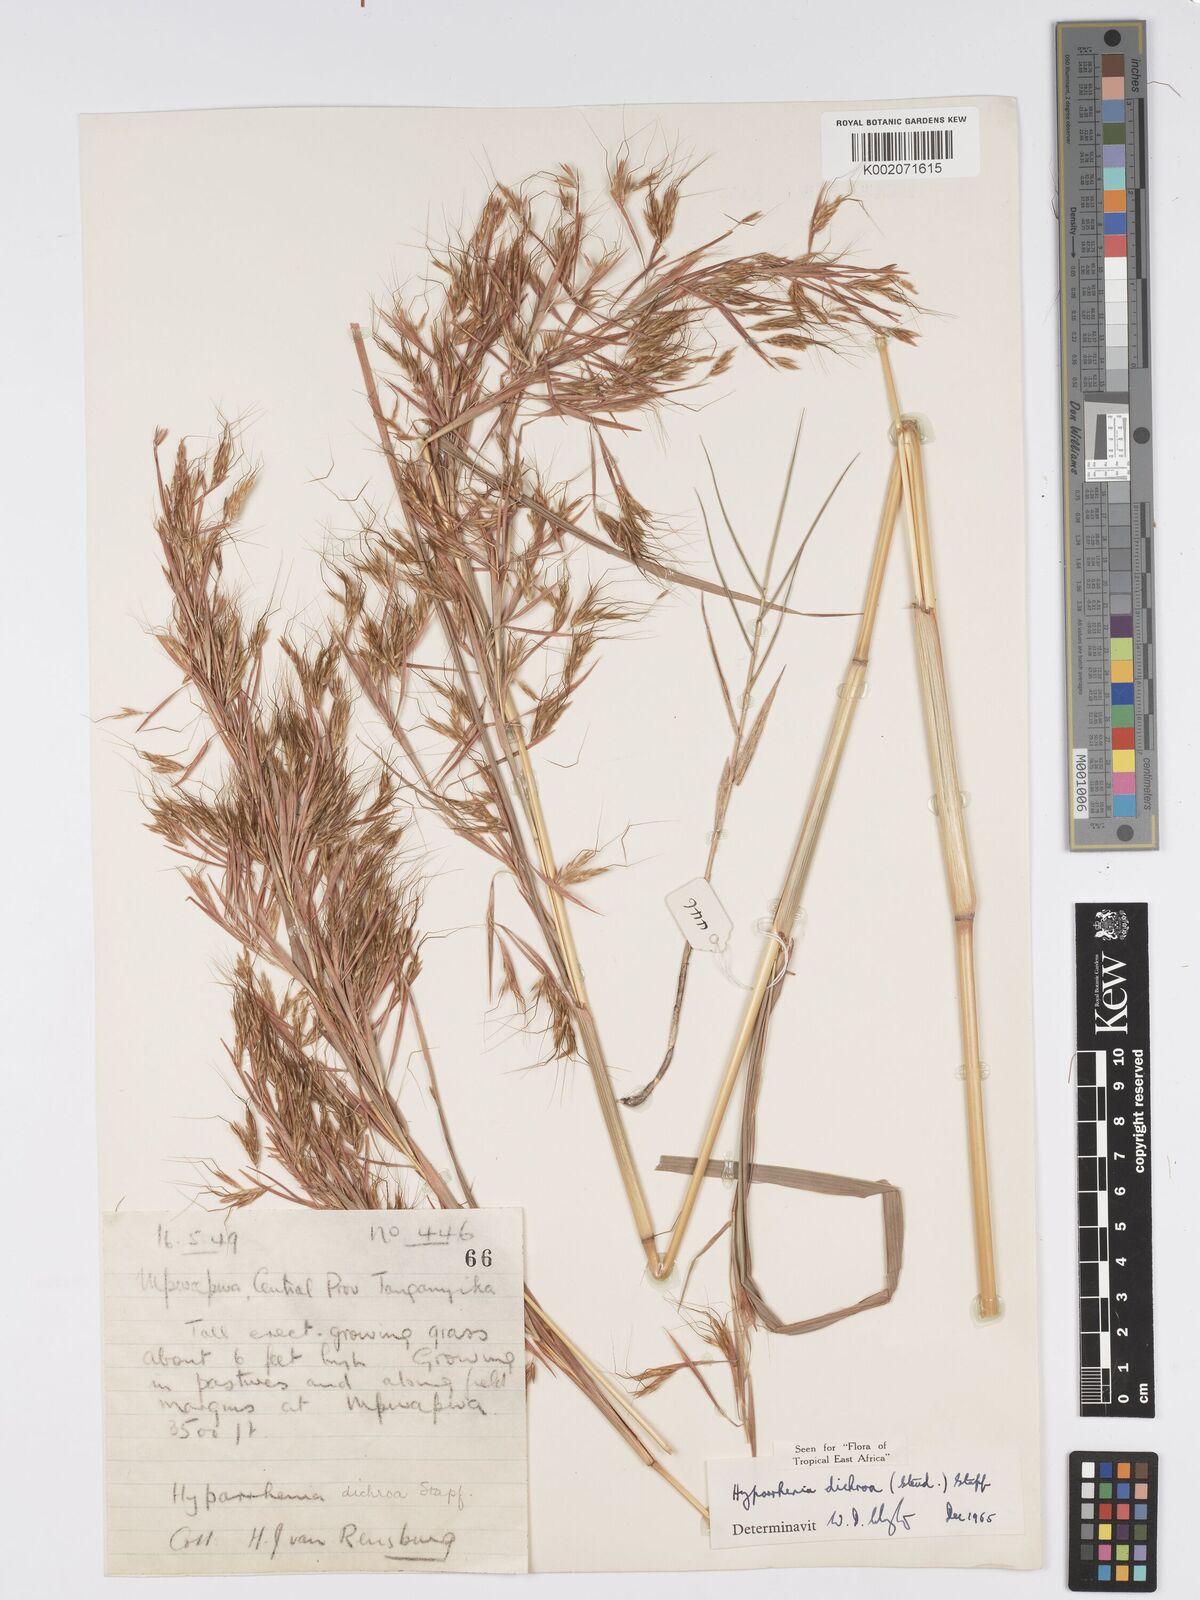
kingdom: Plantae
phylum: Tracheophyta
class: Liliopsida
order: Poales
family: Poaceae
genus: Hyparrhenia
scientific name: Hyparrhenia dichroa
